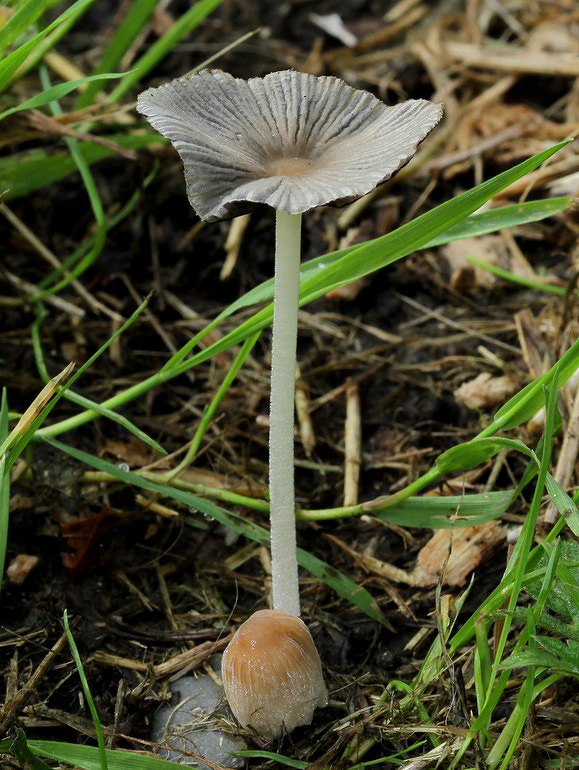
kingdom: Fungi
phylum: Basidiomycota
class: Agaricomycetes
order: Agaricales
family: Psathyrellaceae
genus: Tulosesus
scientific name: Tulosesus subimpatiens
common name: tøvende blækhat
